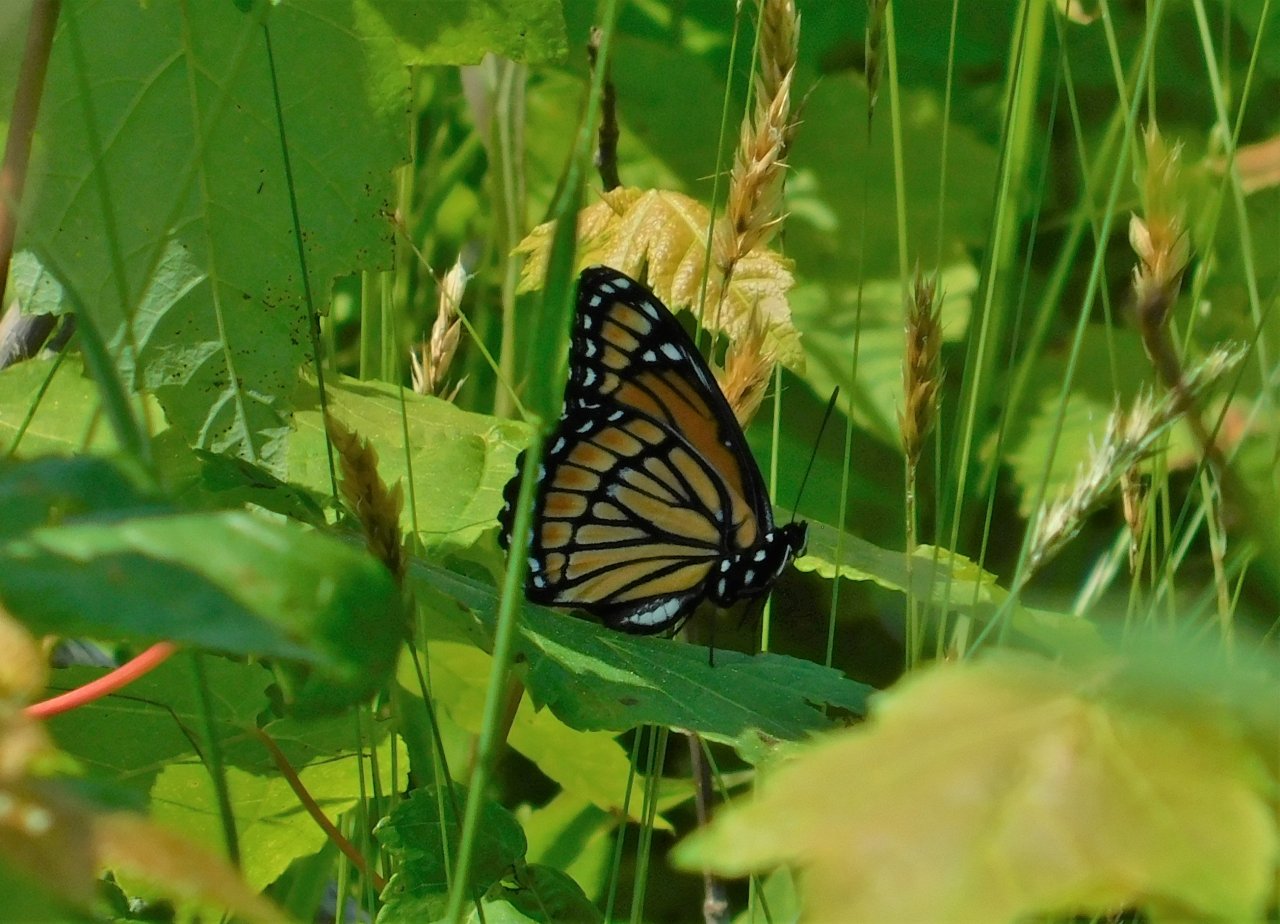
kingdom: Animalia
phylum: Arthropoda
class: Insecta
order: Lepidoptera
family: Nymphalidae
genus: Limenitis
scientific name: Limenitis archippus
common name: Viceroy
